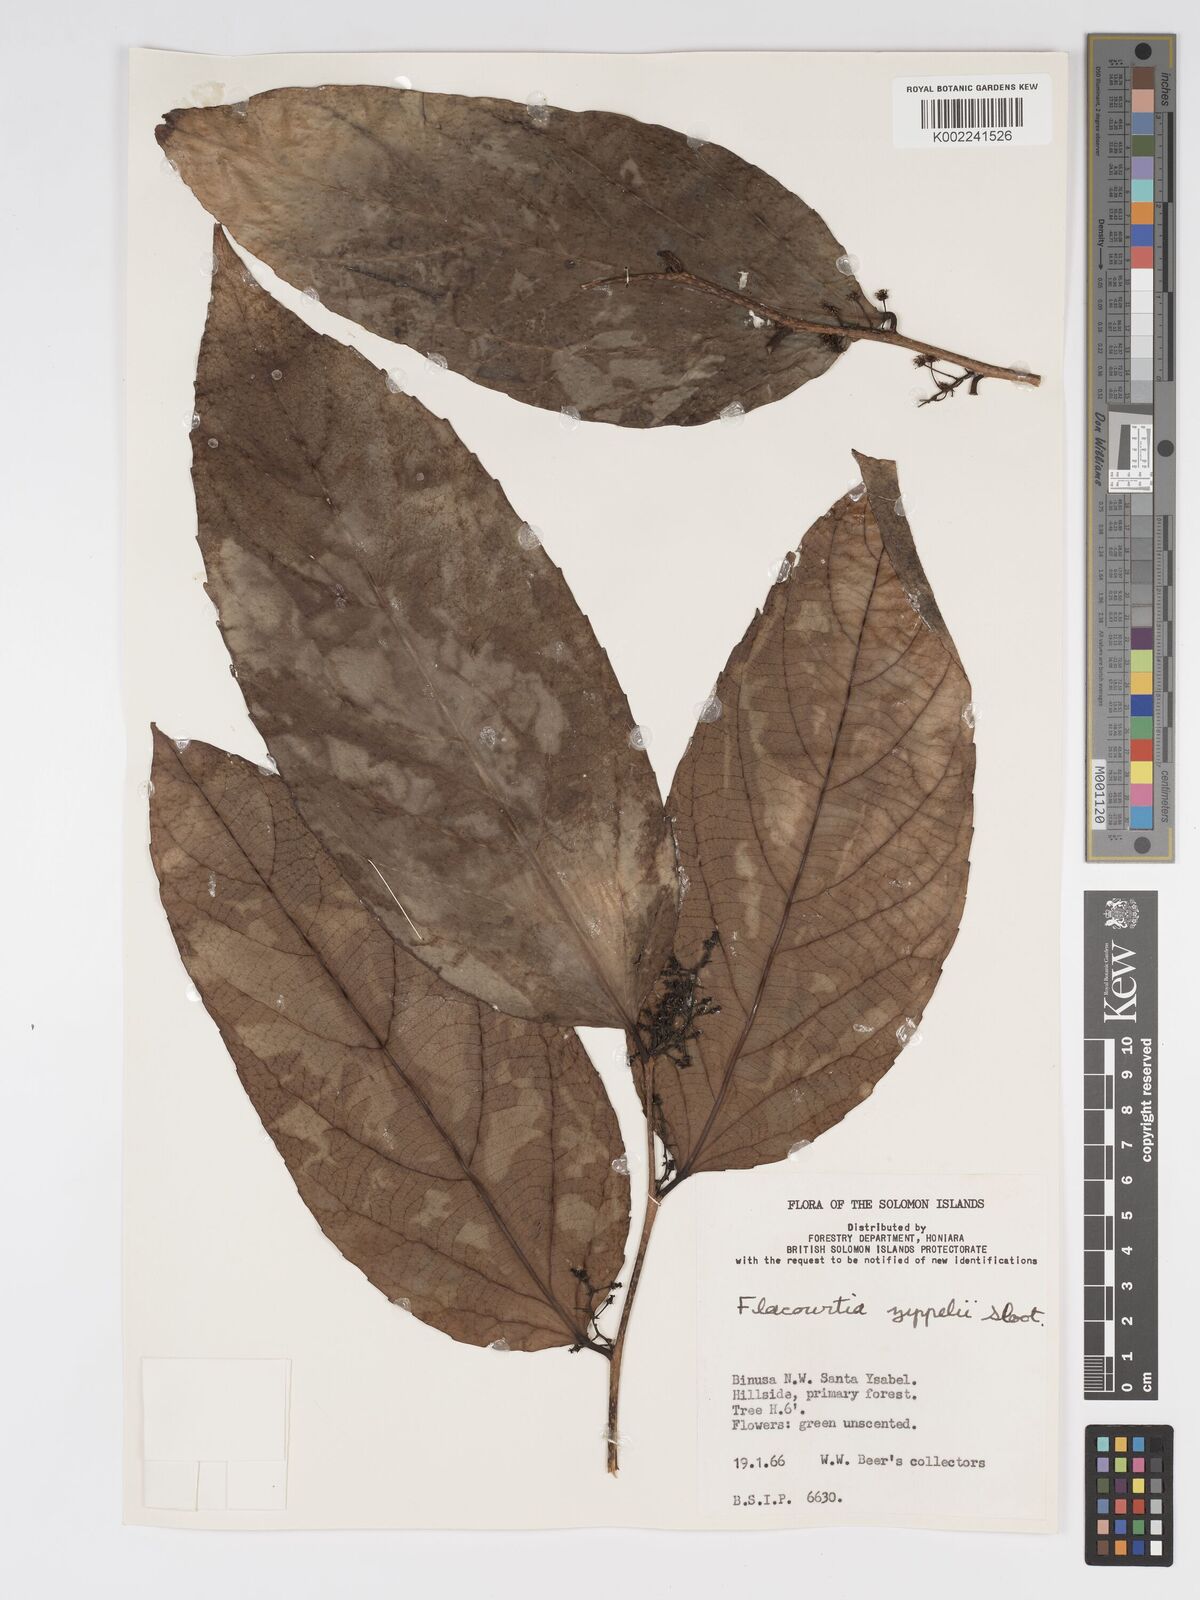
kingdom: Plantae
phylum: Tracheophyta
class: Magnoliopsida
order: Malpighiales
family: Salicaceae
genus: Flacourtia
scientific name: Flacourtia zippelii
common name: Zippeli plum
